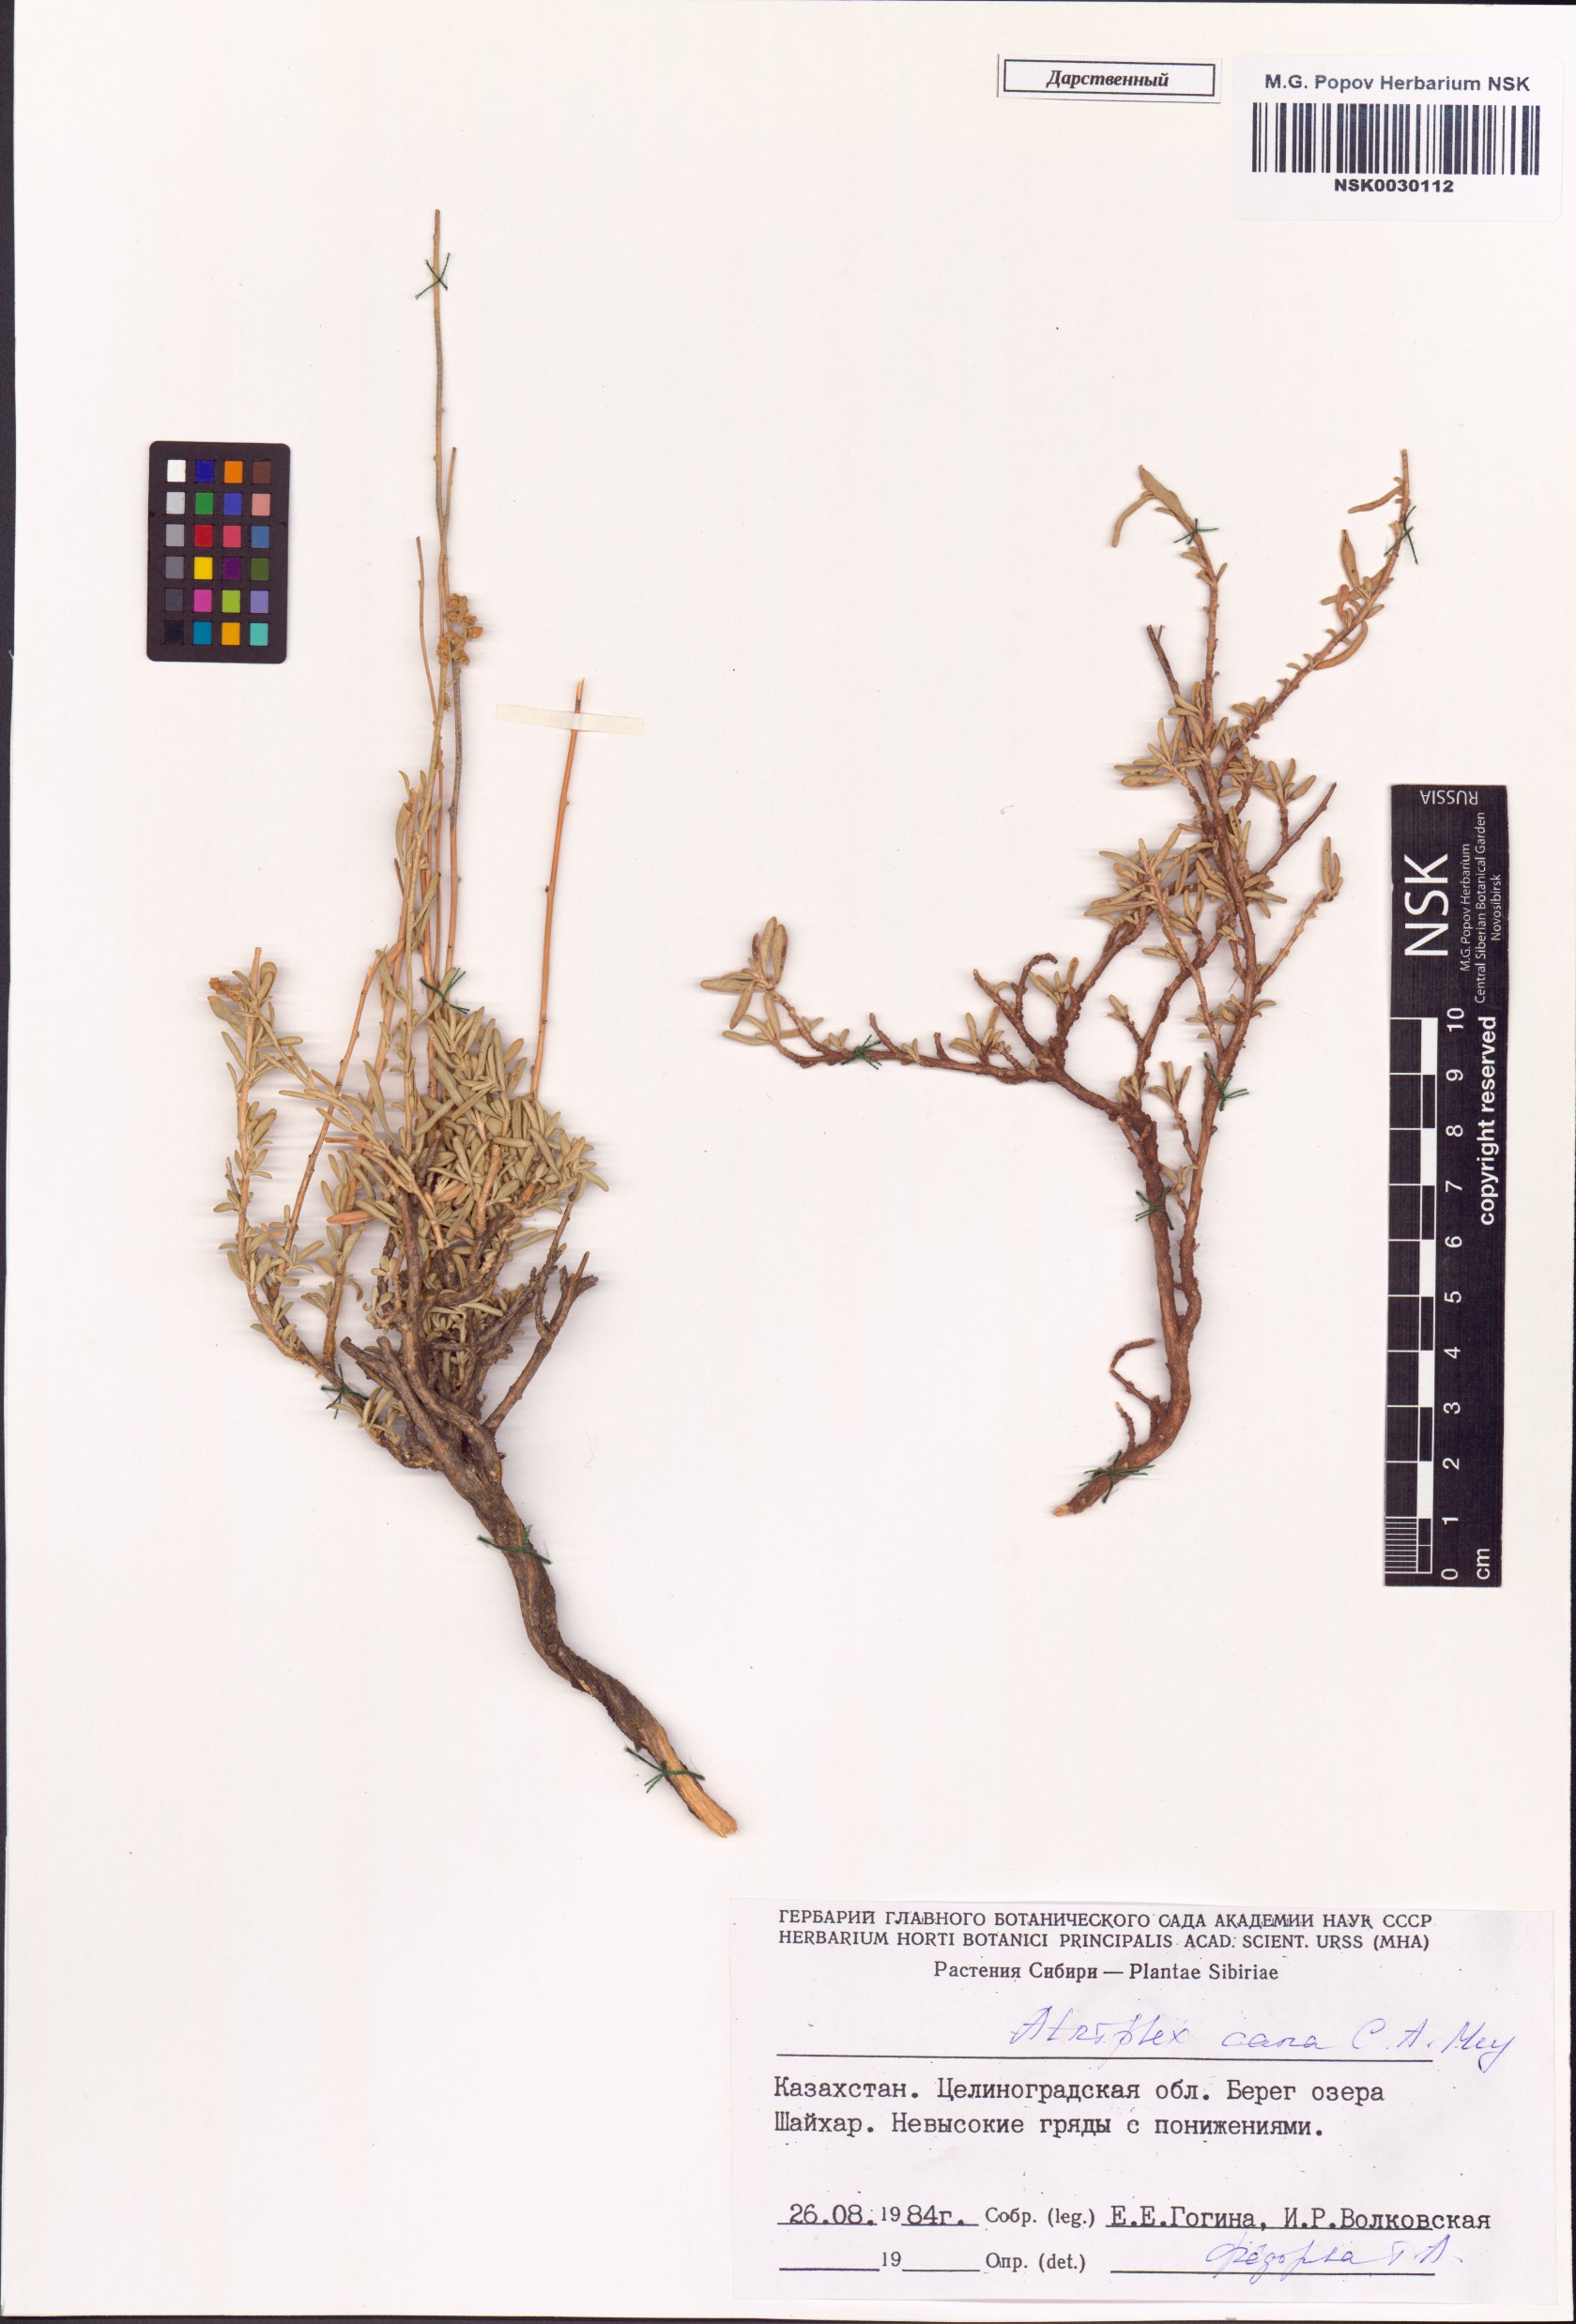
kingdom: Plantae
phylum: Tracheophyta
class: Magnoliopsida
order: Caryophyllales
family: Amaranthaceae
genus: Atriplex
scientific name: Atriplex cana
